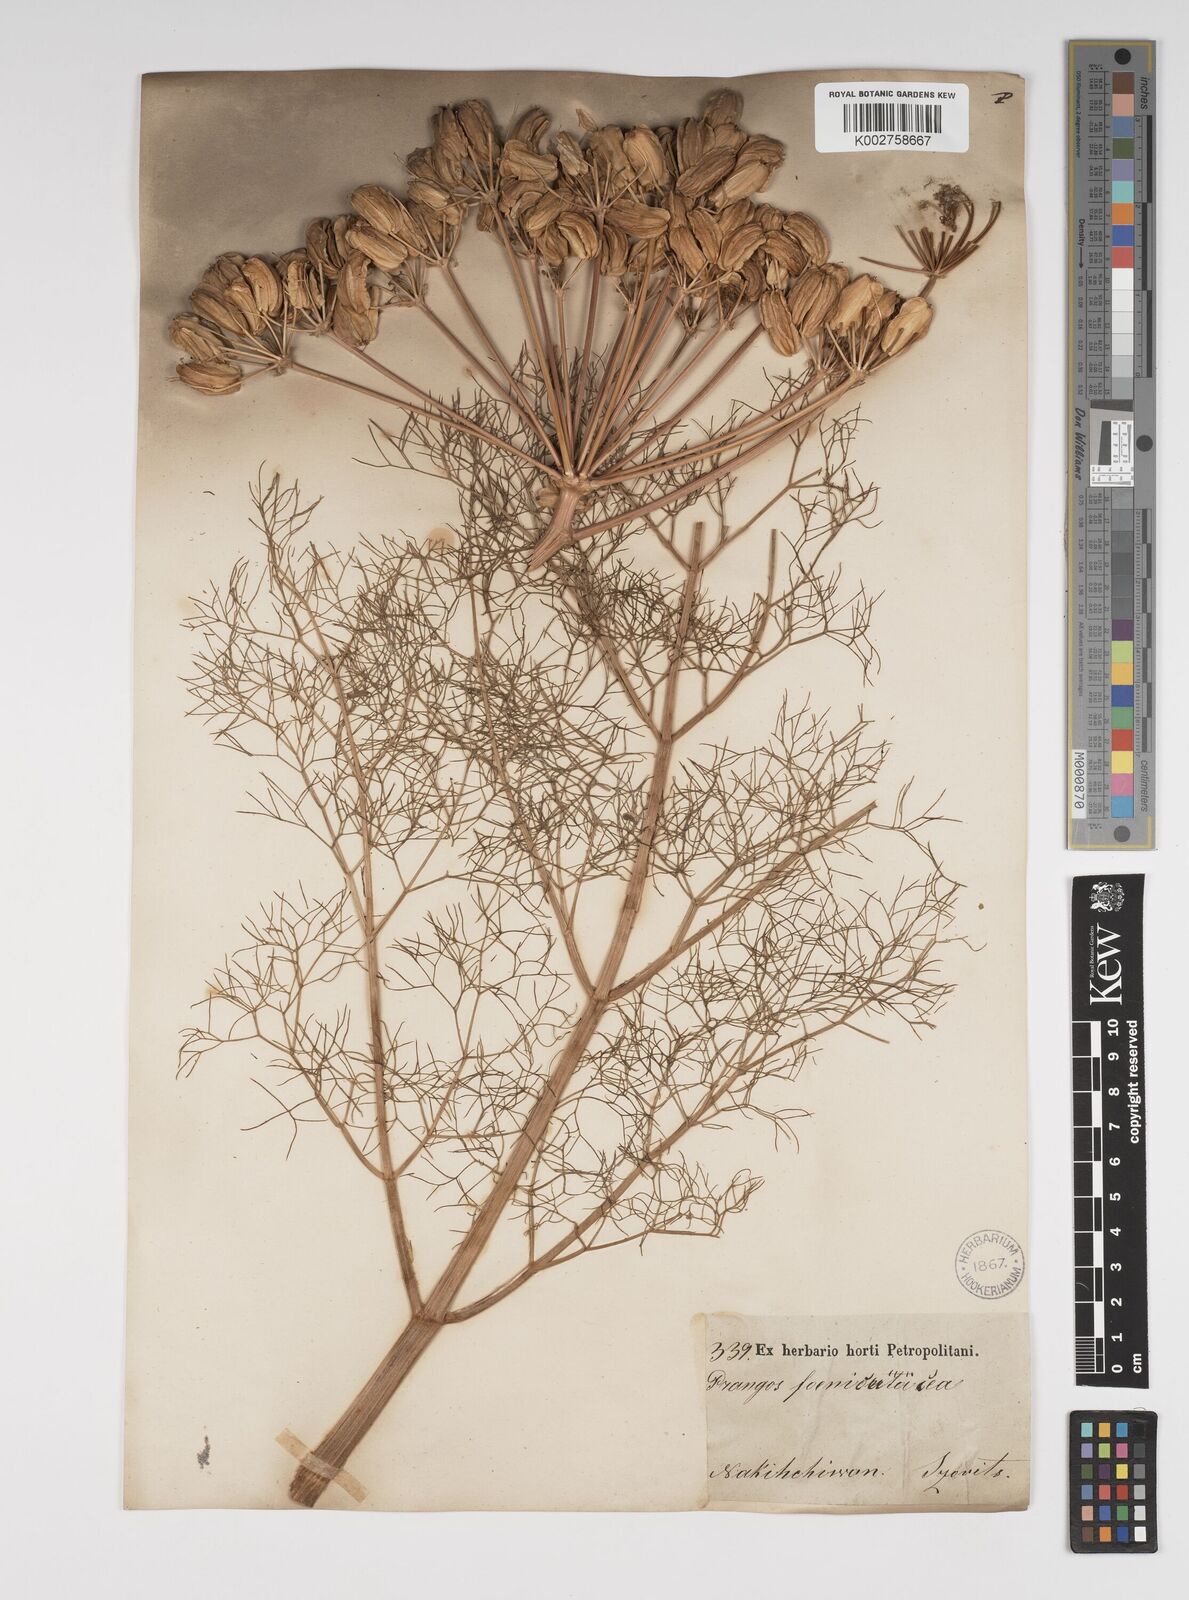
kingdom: Plantae
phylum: Tracheophyta
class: Magnoliopsida
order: Apiales
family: Apiaceae
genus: Prangos
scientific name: Prangos ferulacea
